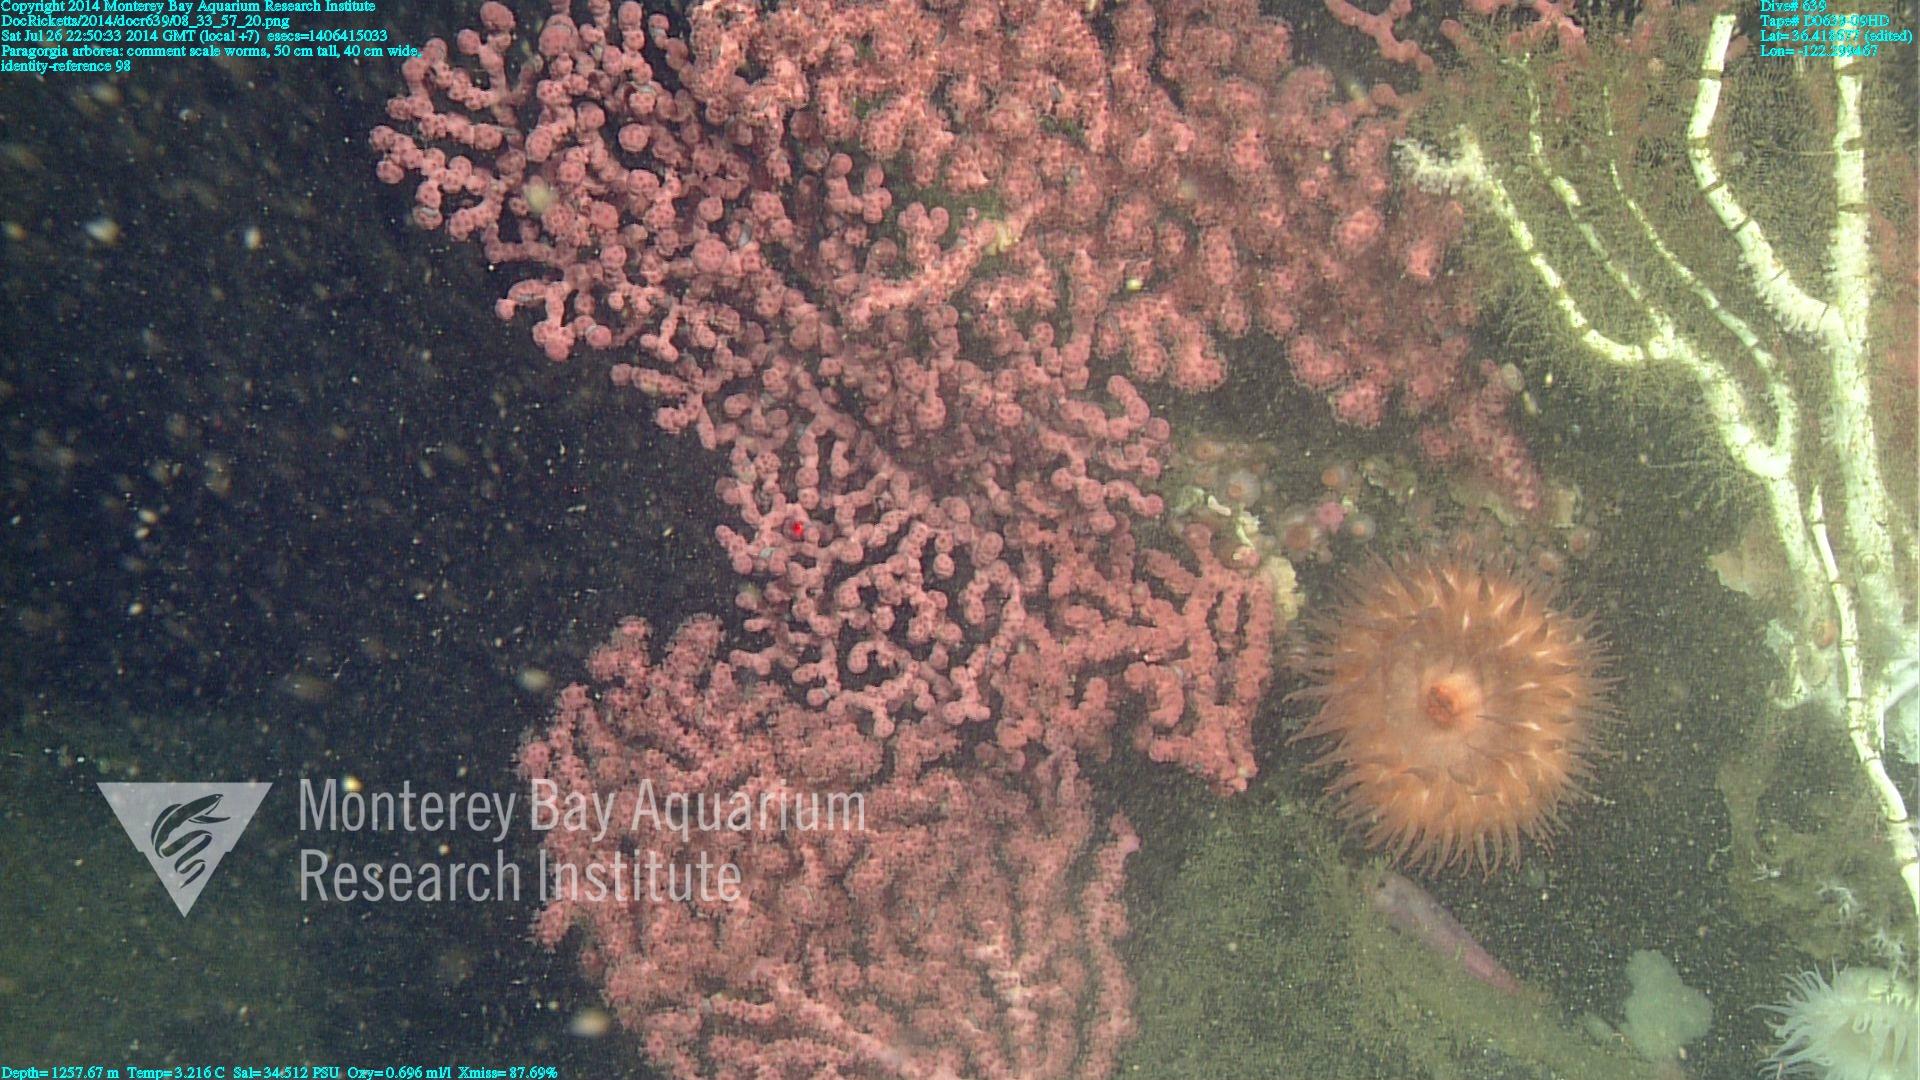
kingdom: Animalia
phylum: Cnidaria
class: Anthozoa
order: Scleralcyonacea
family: Coralliidae
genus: Paragorgia
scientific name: Paragorgia arborea
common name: Bubble gum coral
